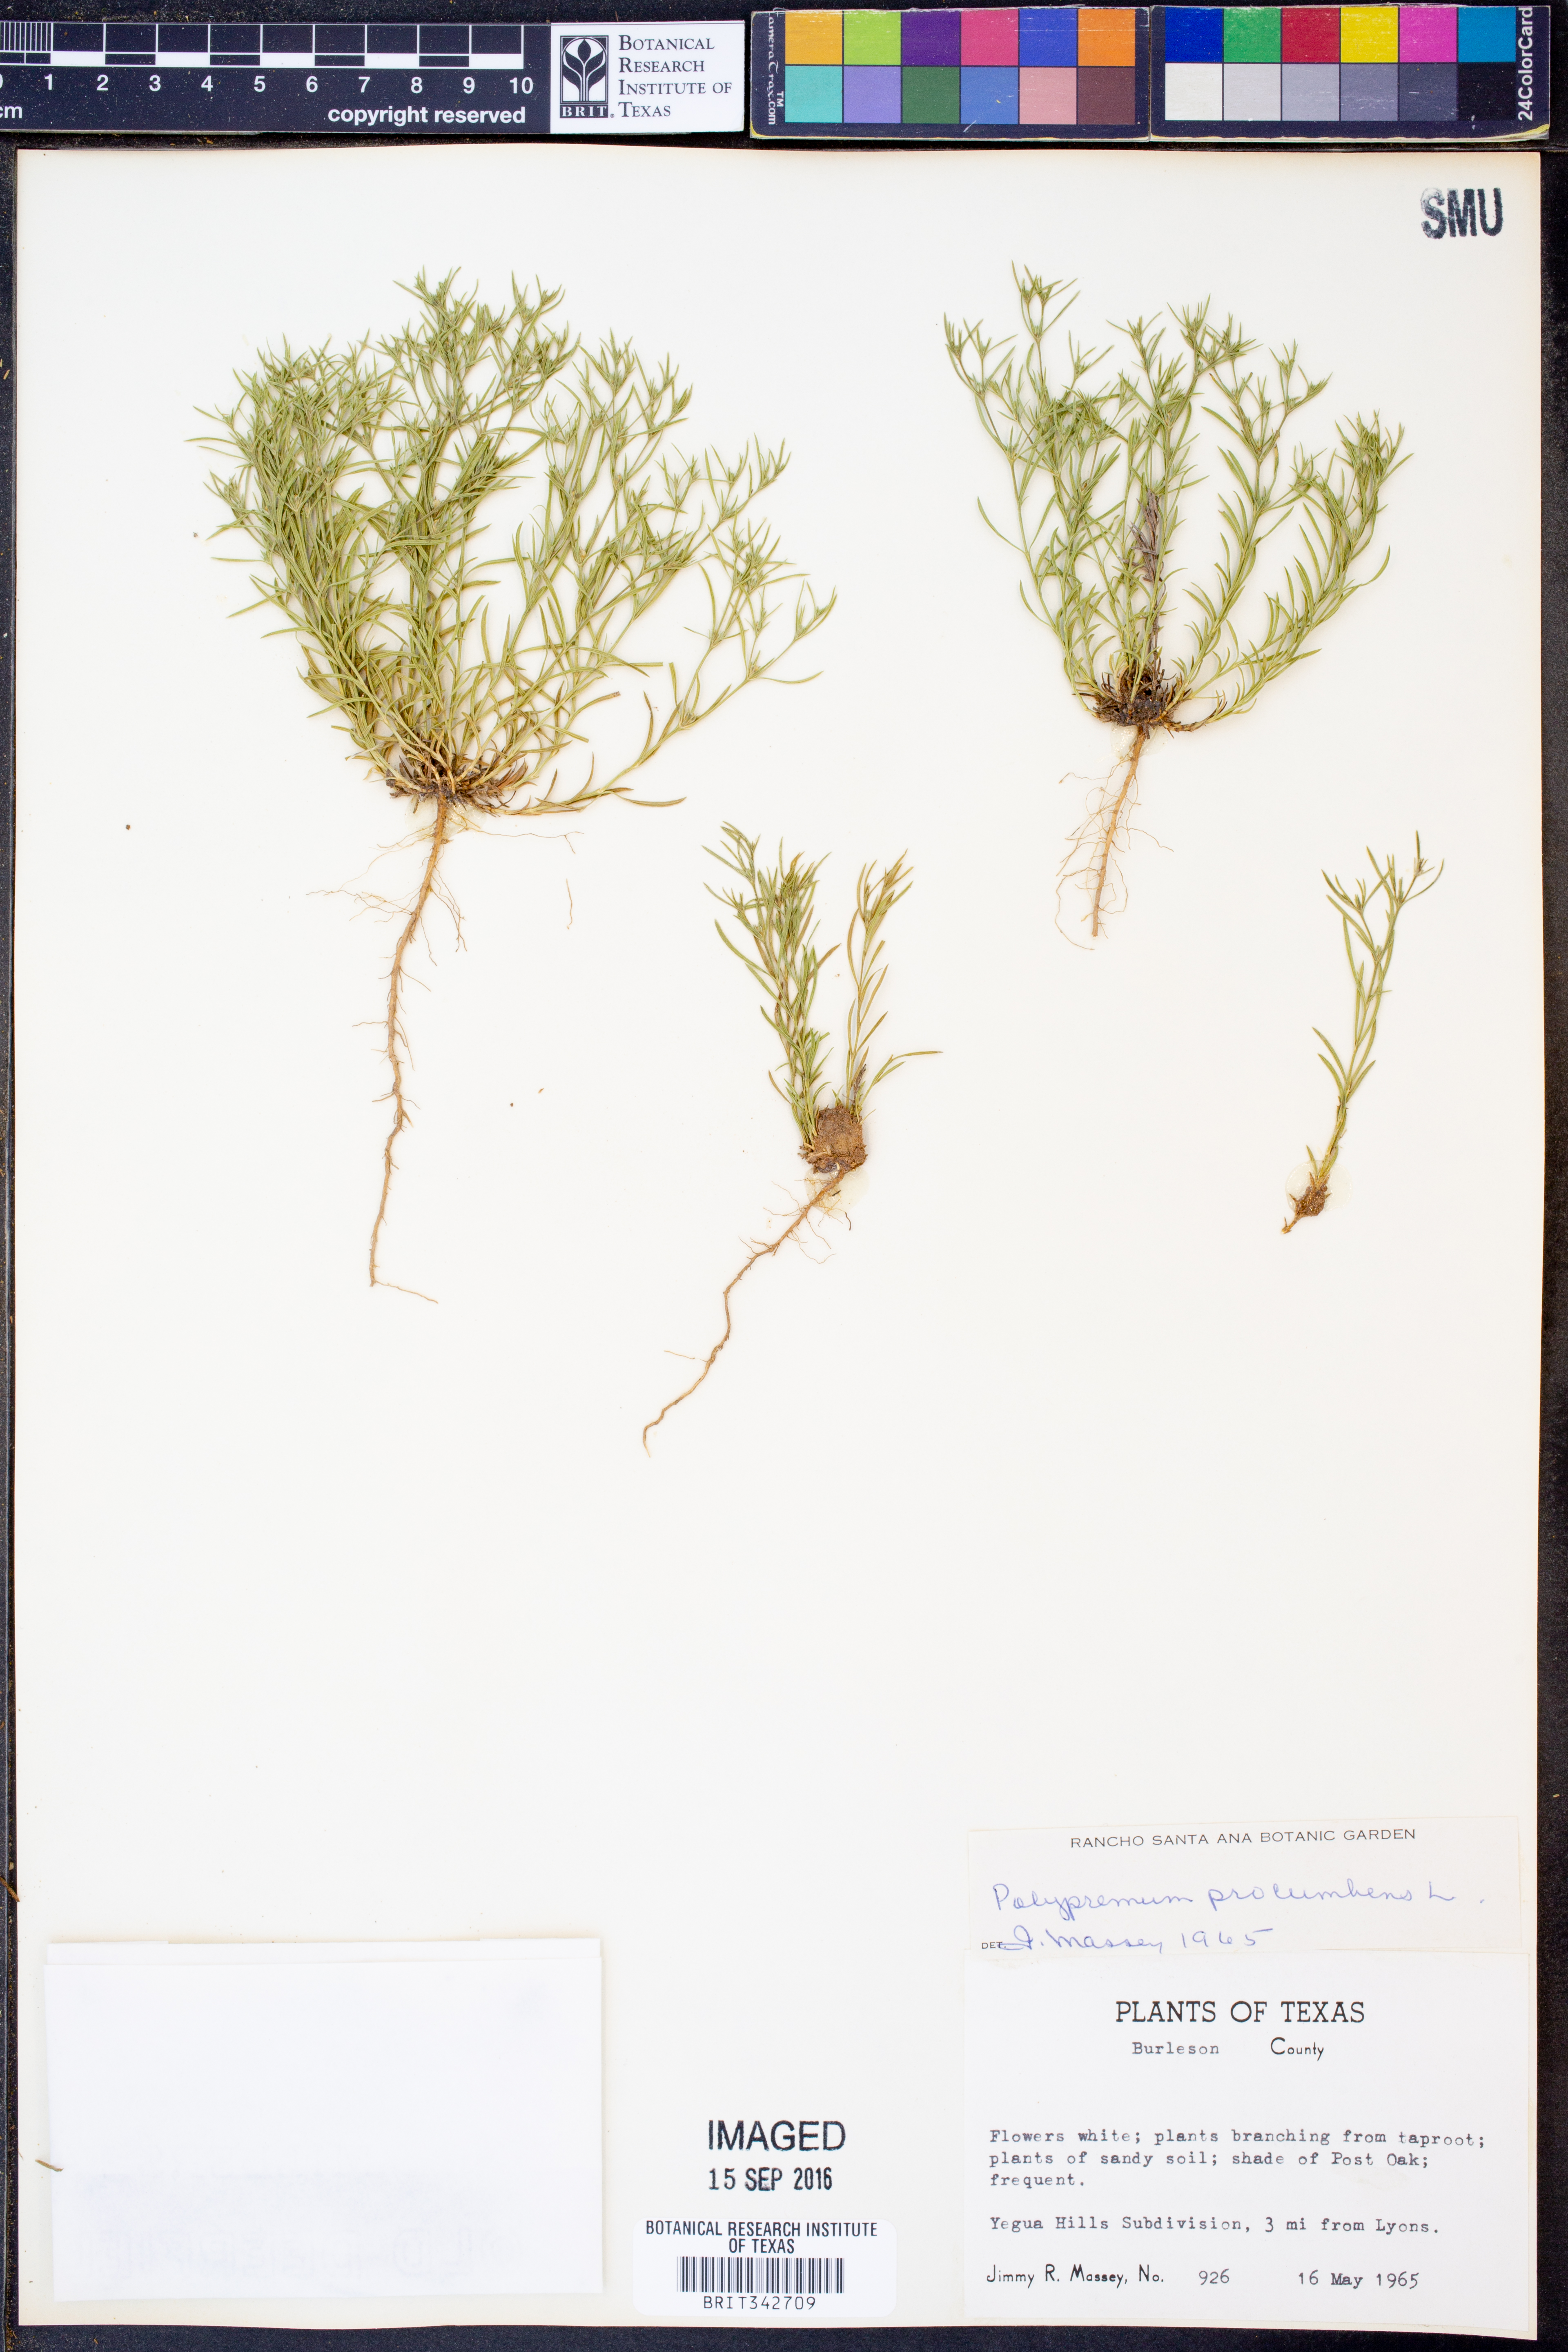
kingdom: Plantae
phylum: Tracheophyta
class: Magnoliopsida
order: Lamiales
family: Tetrachondraceae
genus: Polypremum
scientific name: Polypremum procumbens
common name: Juniper-leaf
